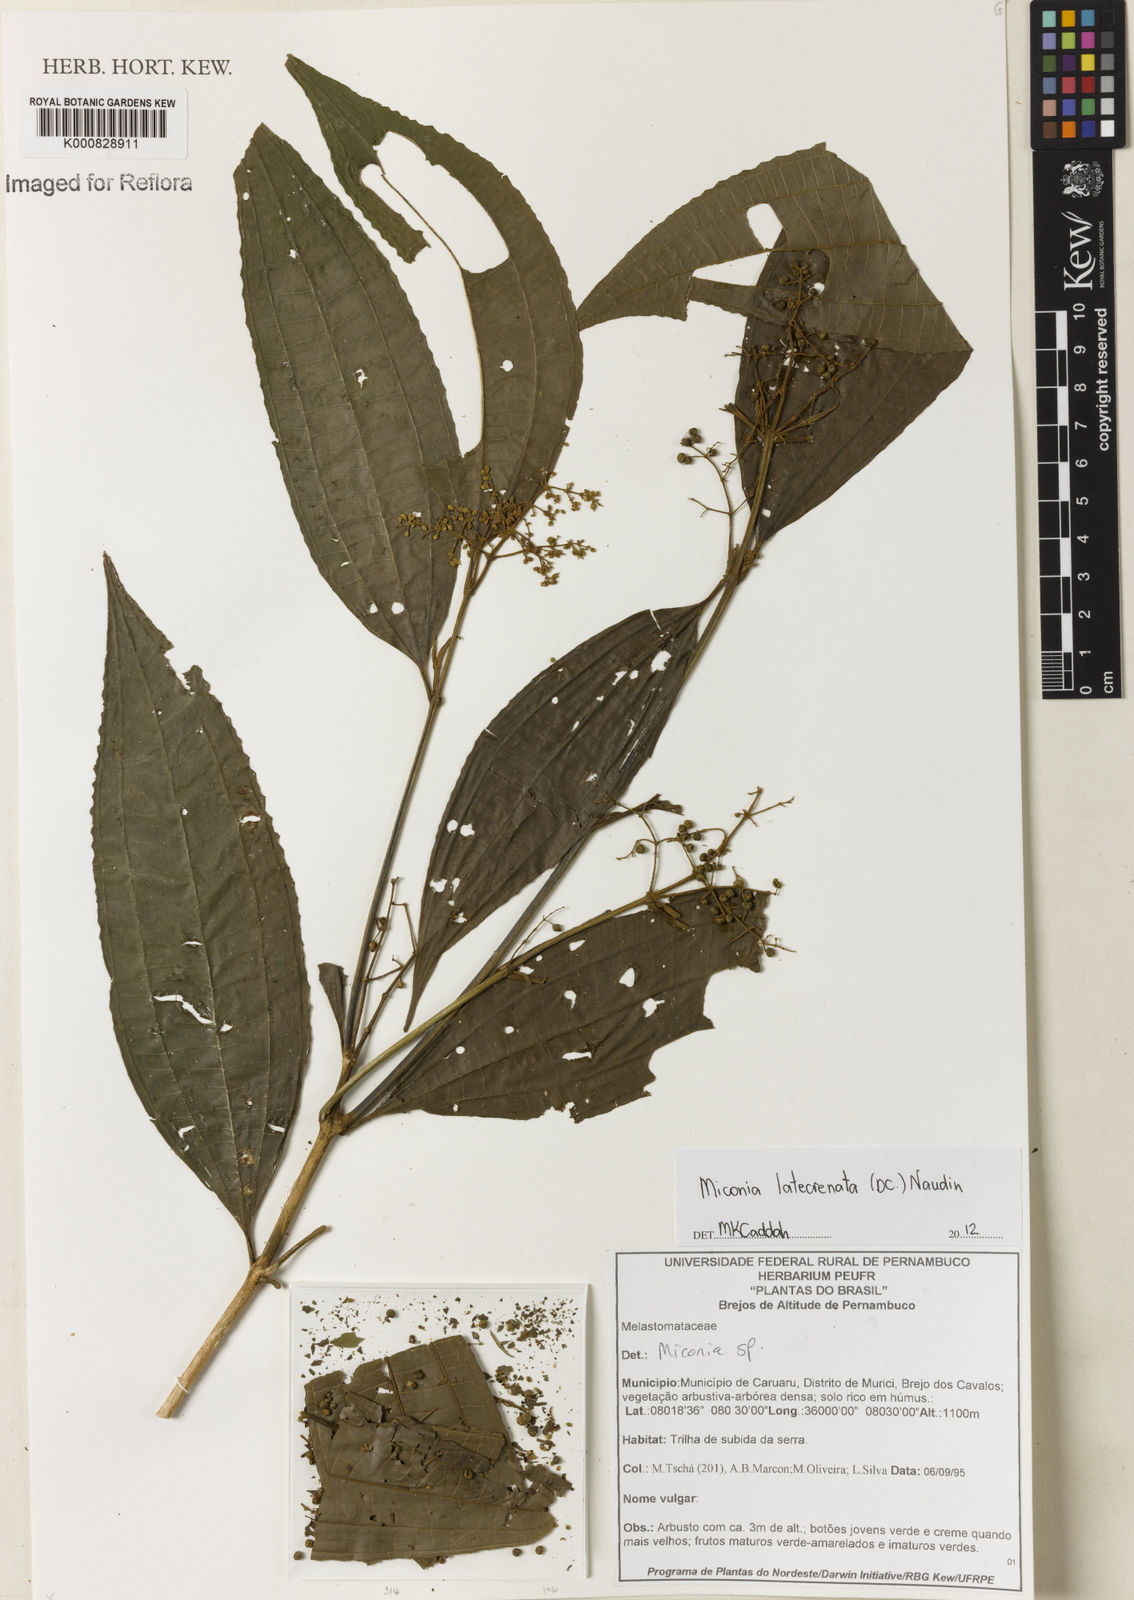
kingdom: Plantae
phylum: Tracheophyta
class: Magnoliopsida
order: Myrtales
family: Melastomataceae
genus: Miconia
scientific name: Miconia latecrenata
